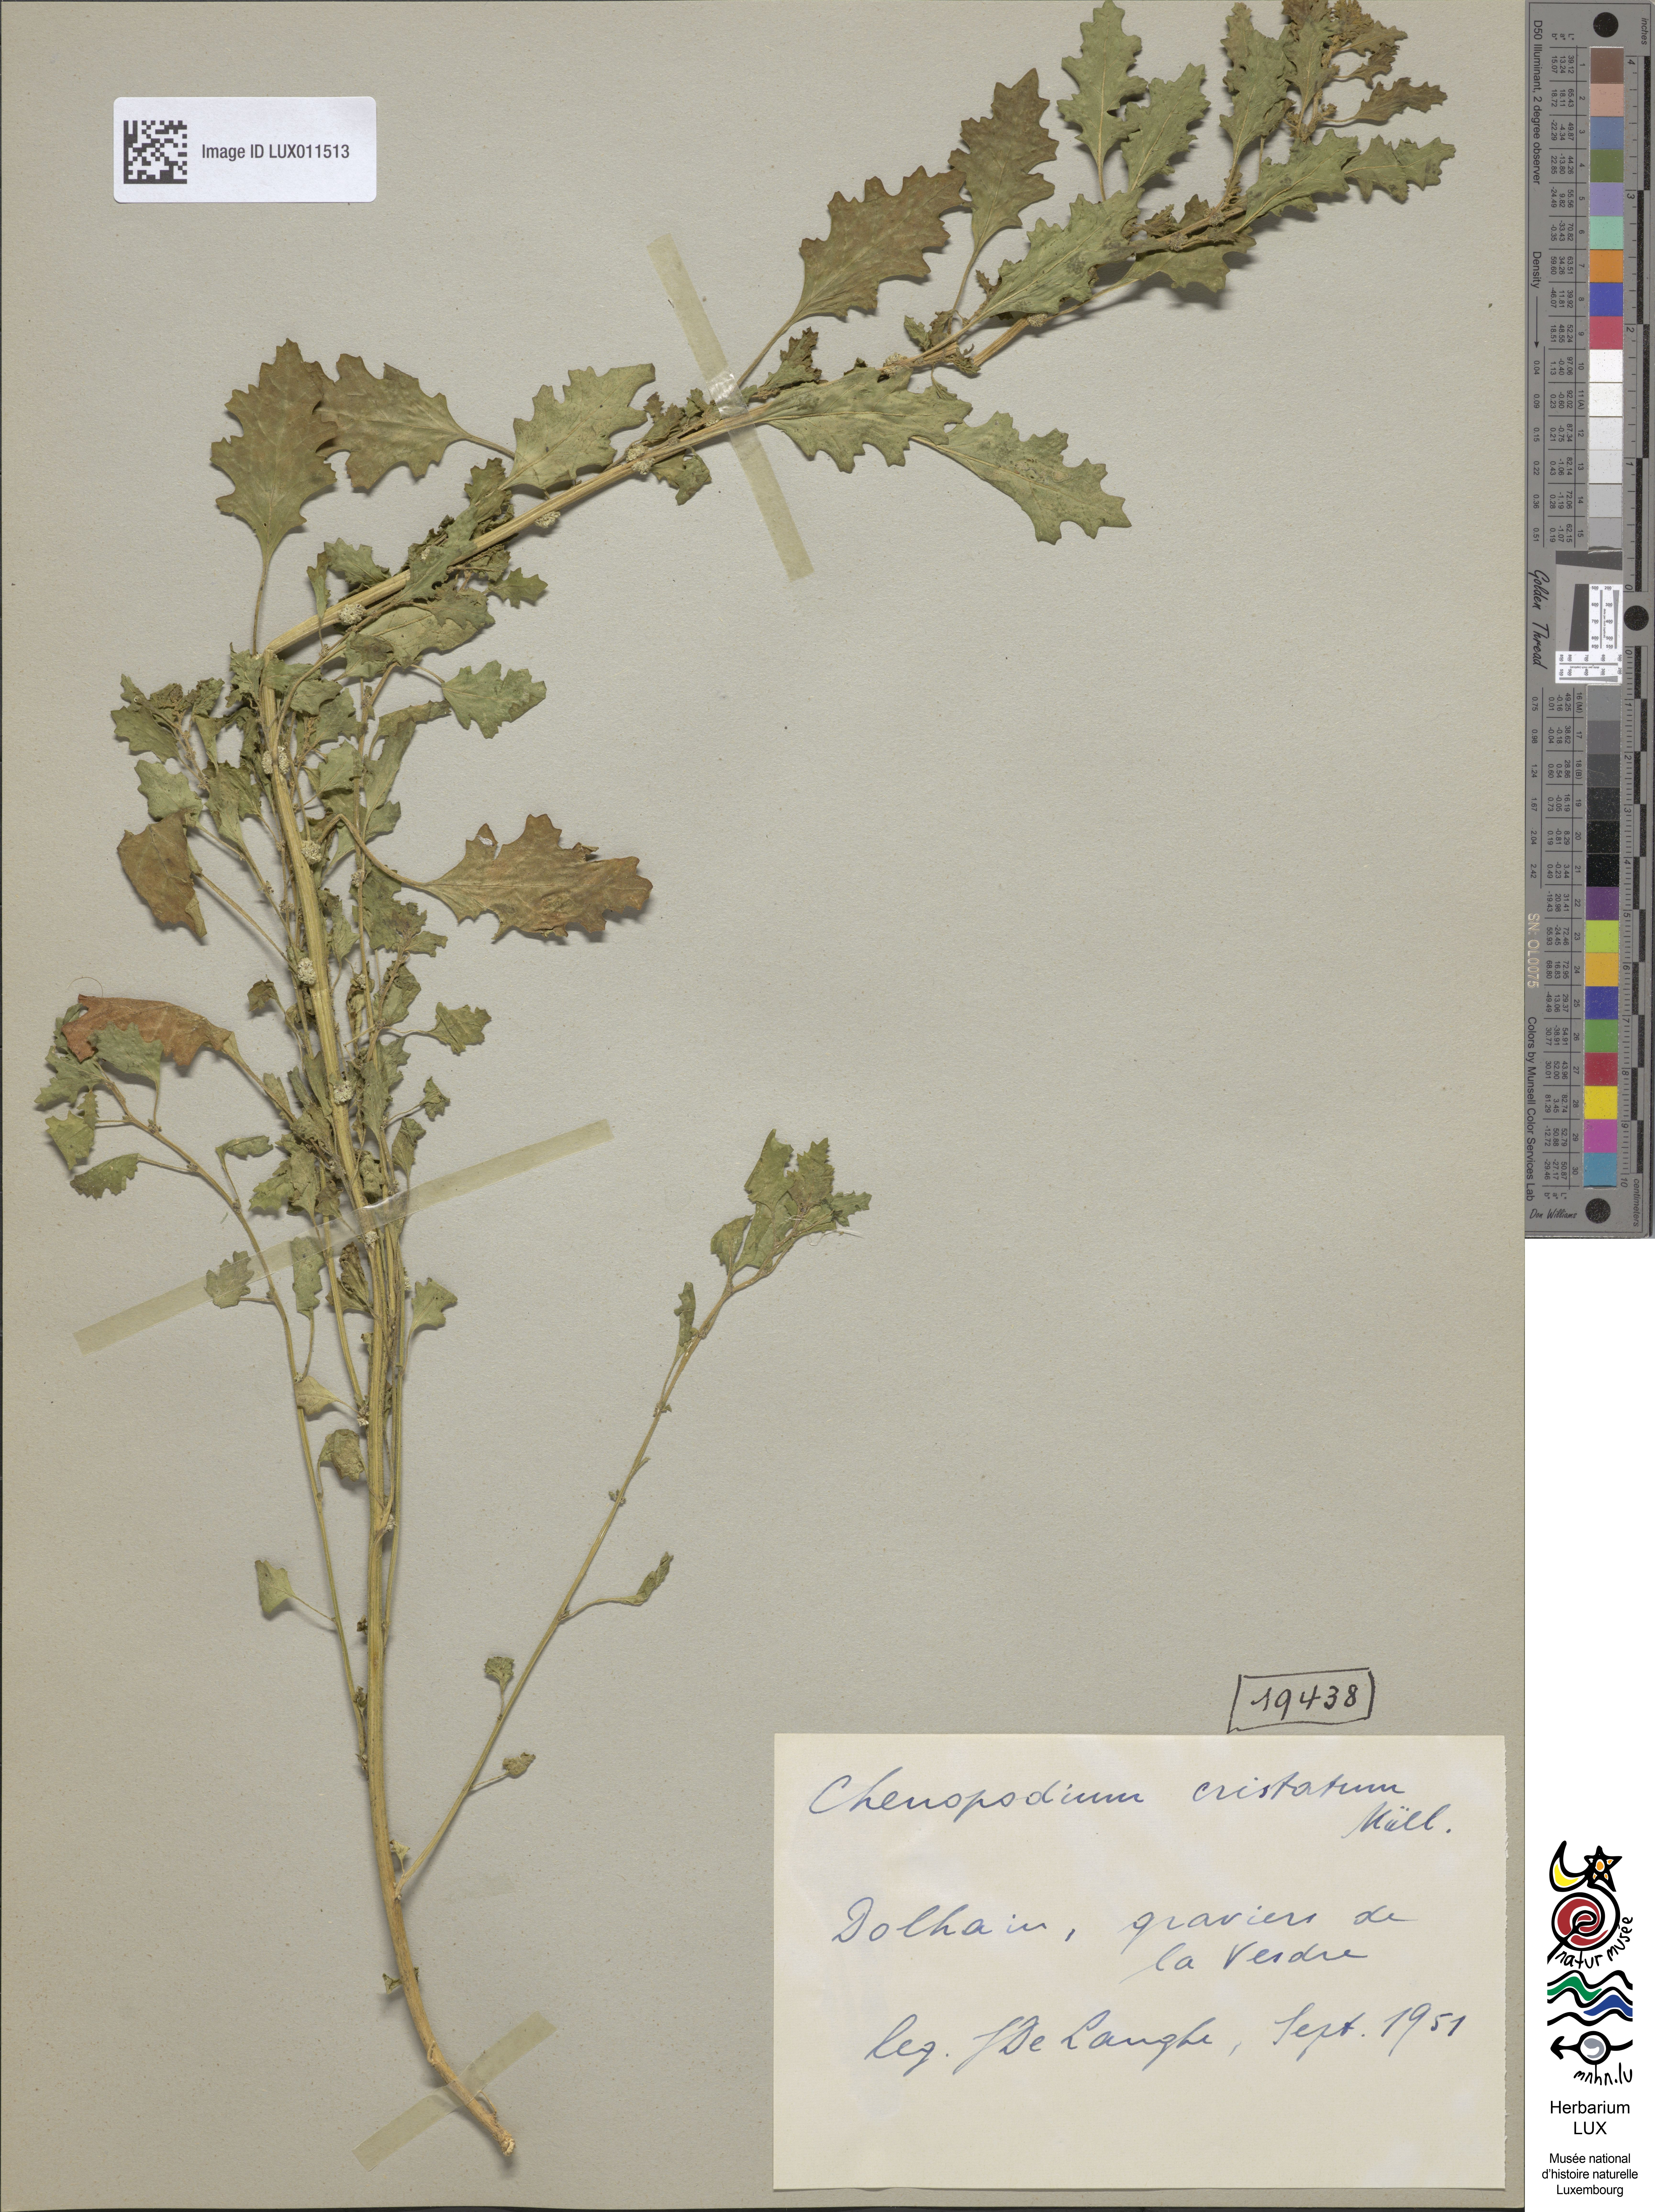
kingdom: Plantae
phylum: Tracheophyta
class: Magnoliopsida
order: Caryophyllales
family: Amaranthaceae
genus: Dysphania
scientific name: Dysphania cristata
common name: Crested goosefoot
